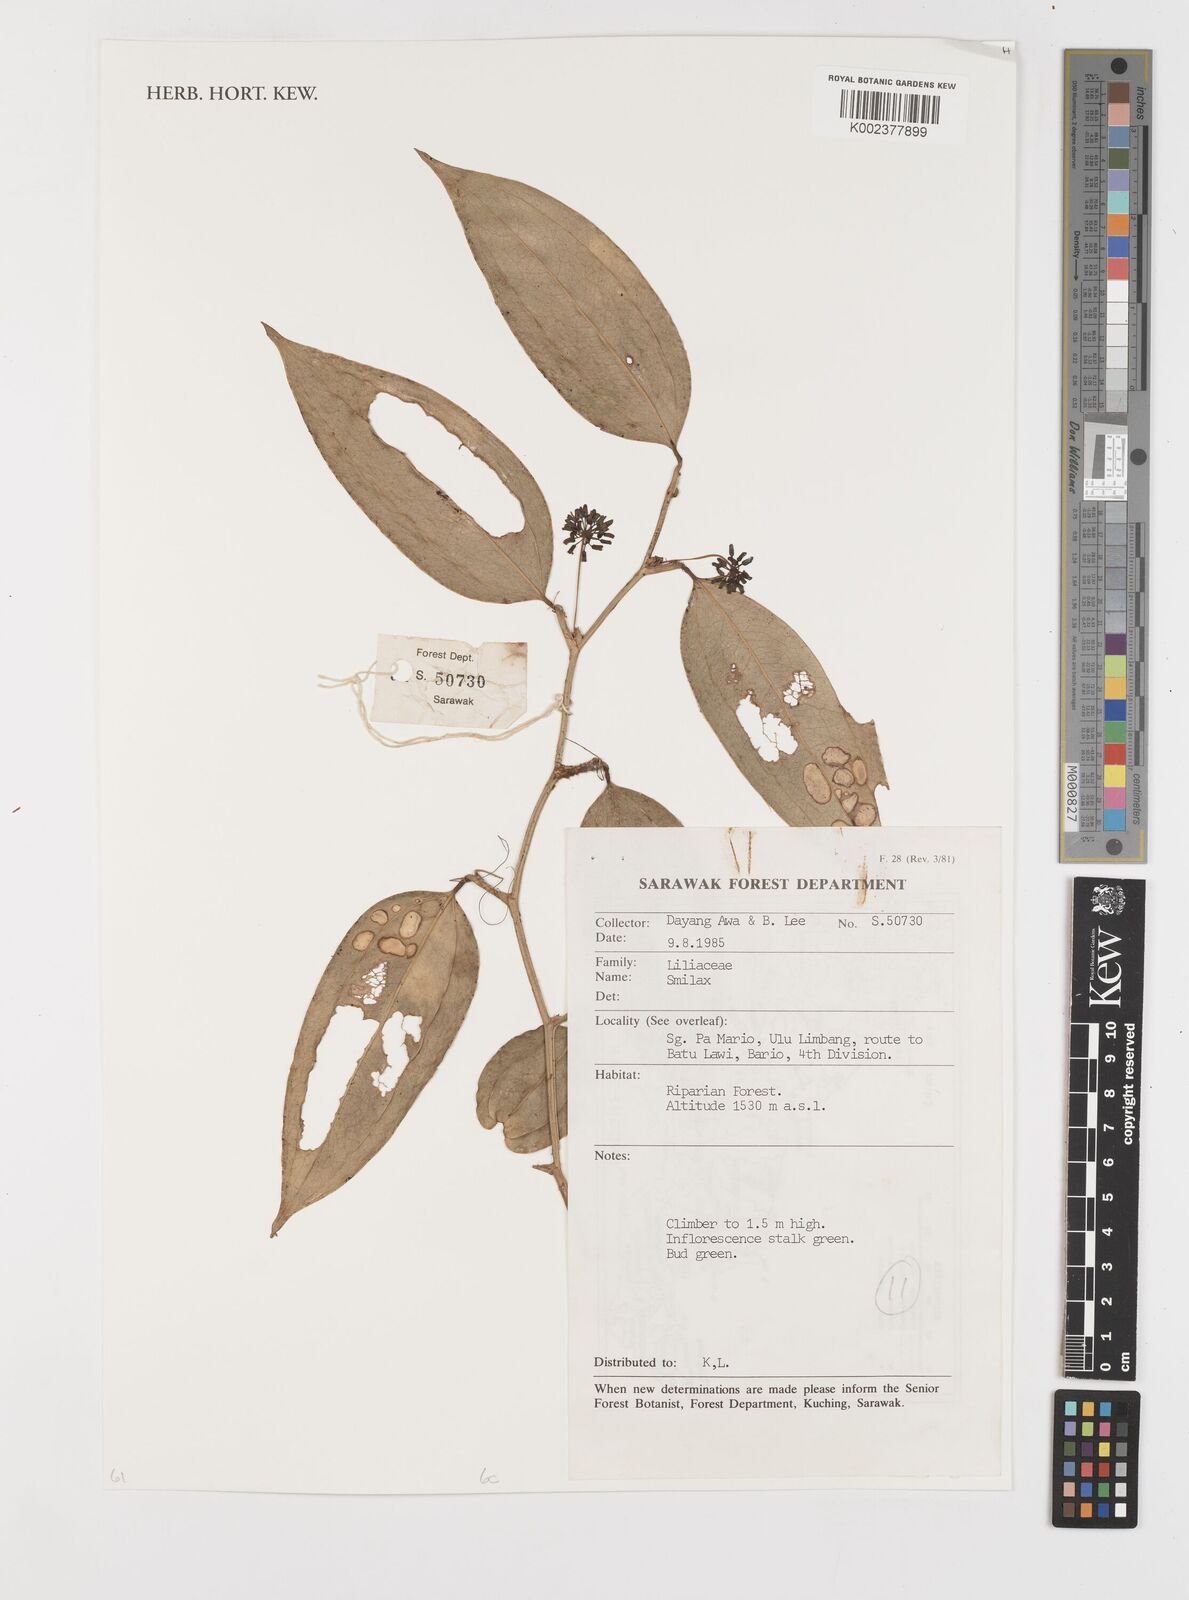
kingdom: Plantae
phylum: Tracheophyta
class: Liliopsida
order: Liliales
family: Smilacaceae
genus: Smilax
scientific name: Smilax
